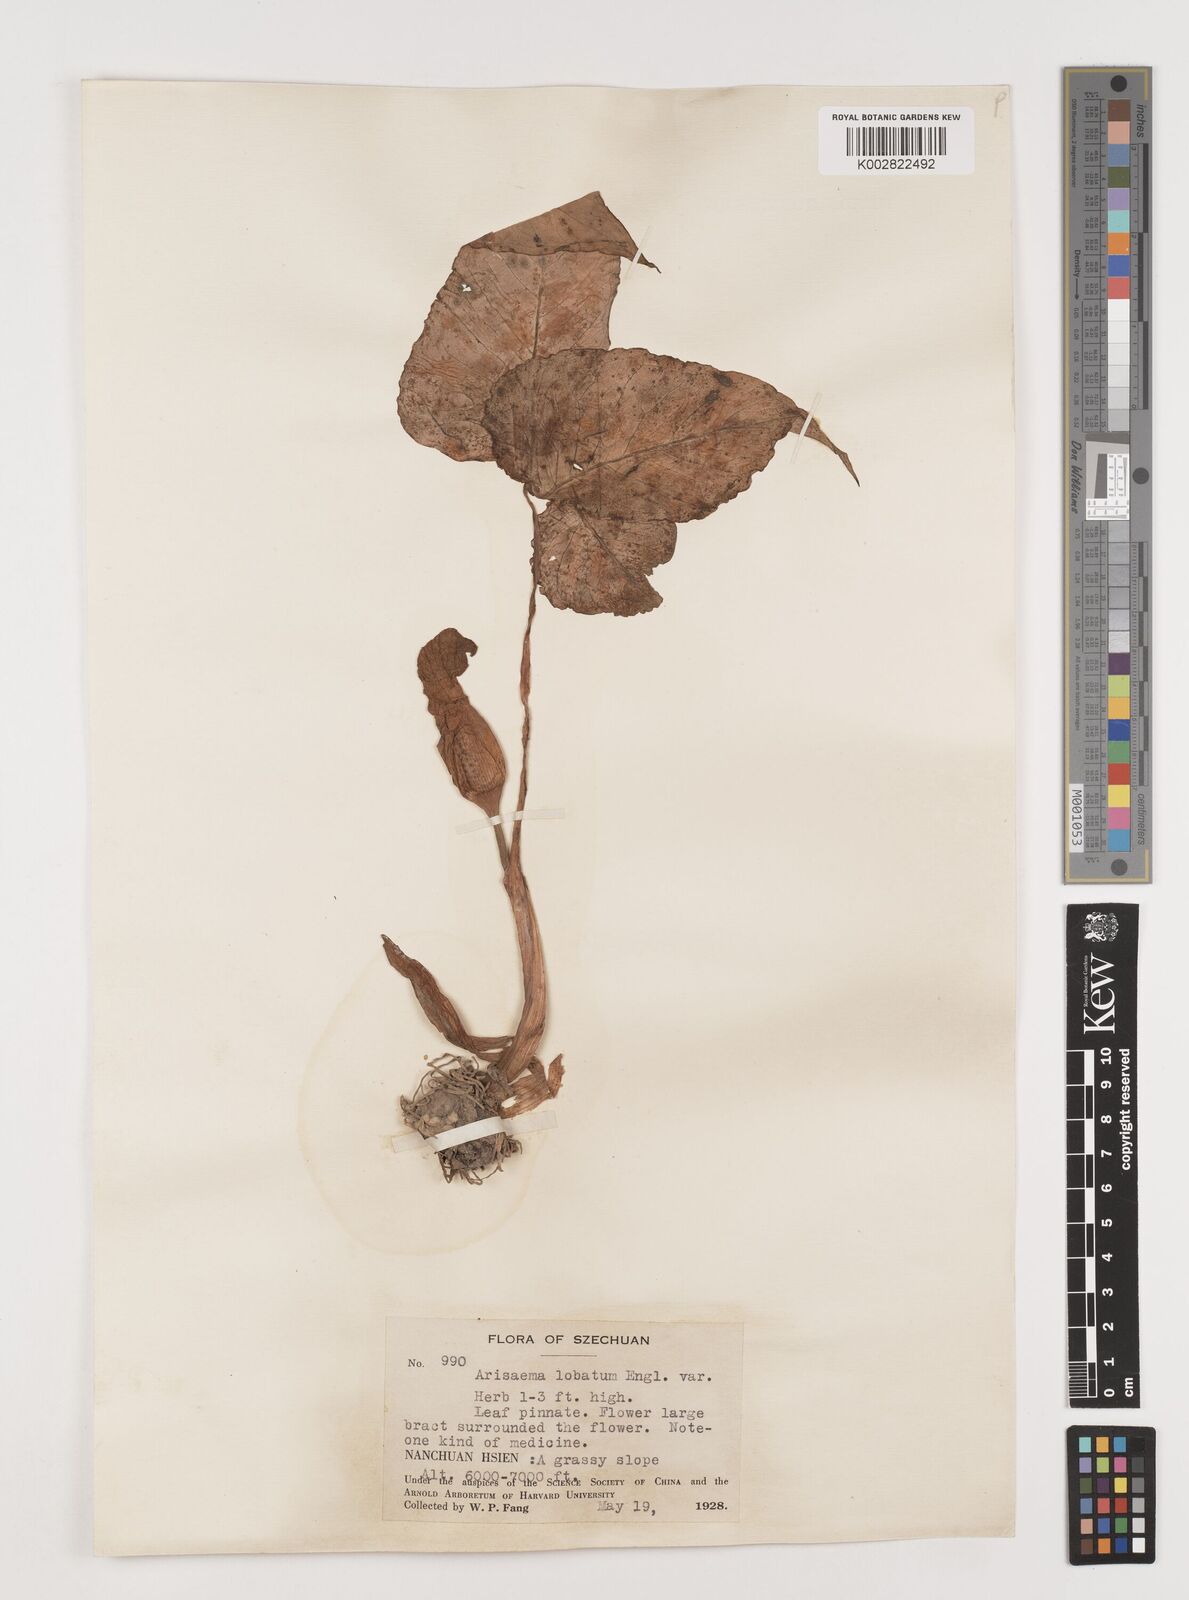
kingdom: Plantae
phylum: Tracheophyta
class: Liliopsida
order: Alismatales
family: Araceae
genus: Arisaema
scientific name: Arisaema lobatum
